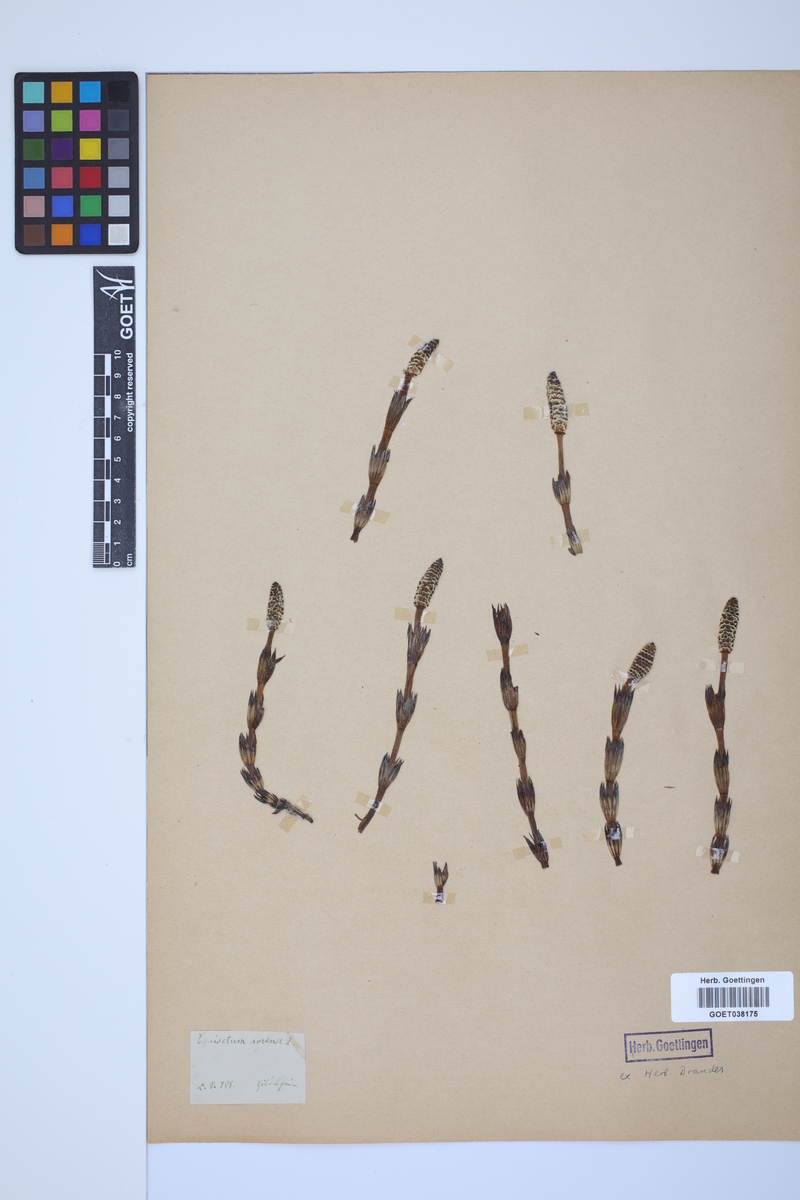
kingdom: Plantae
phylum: Tracheophyta
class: Polypodiopsida
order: Equisetales
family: Equisetaceae
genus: Equisetum
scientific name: Equisetum arvense
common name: Field horsetail
